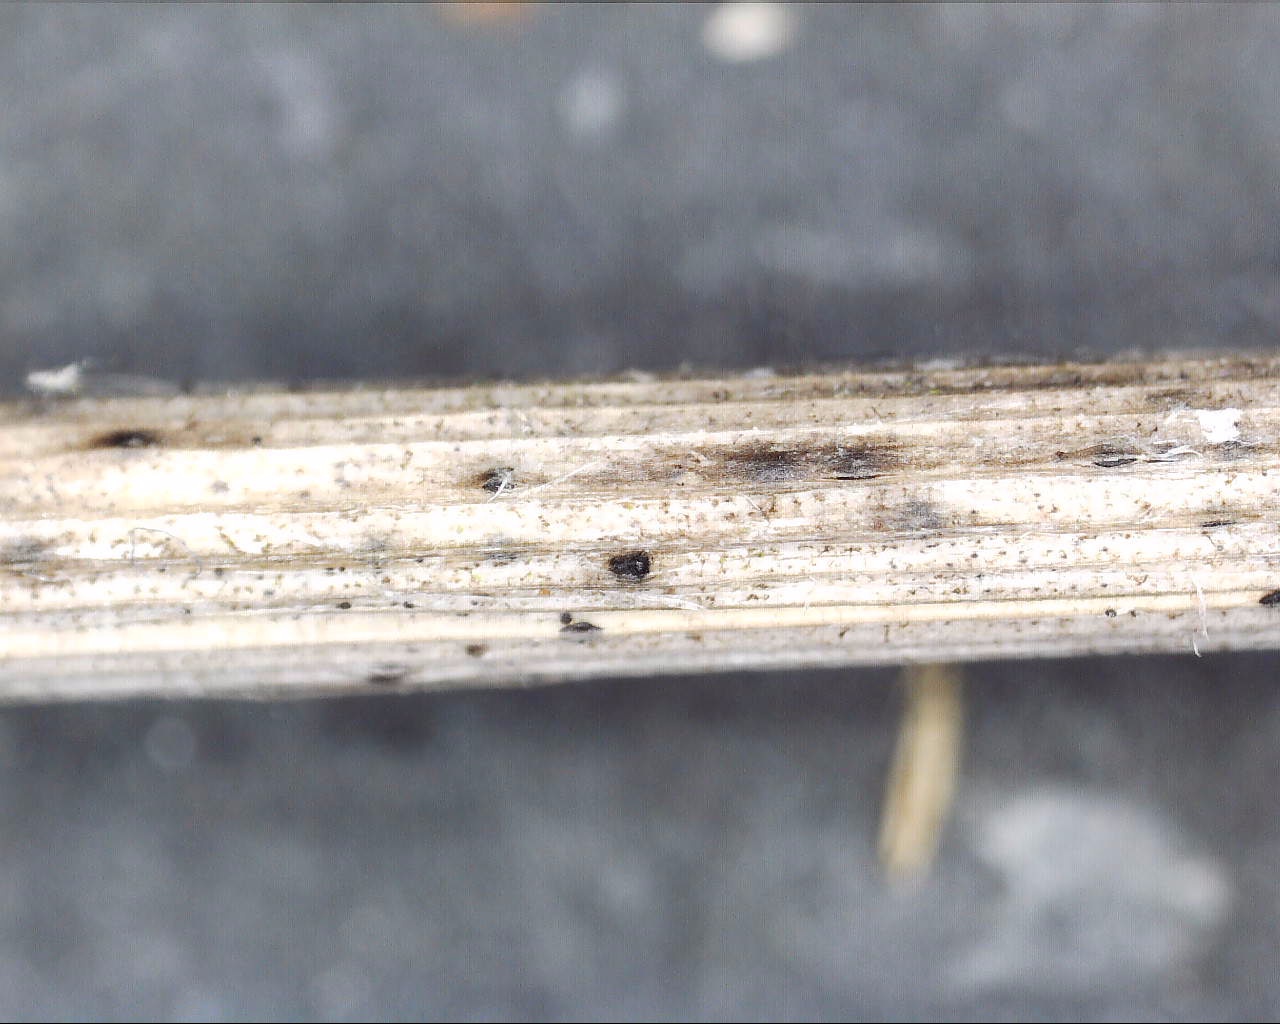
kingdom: Fungi
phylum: Ascomycota
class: Dothideomycetes
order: Pleosporales
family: Pleosporaceae
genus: Alternaria
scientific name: Alternaria infectoria
